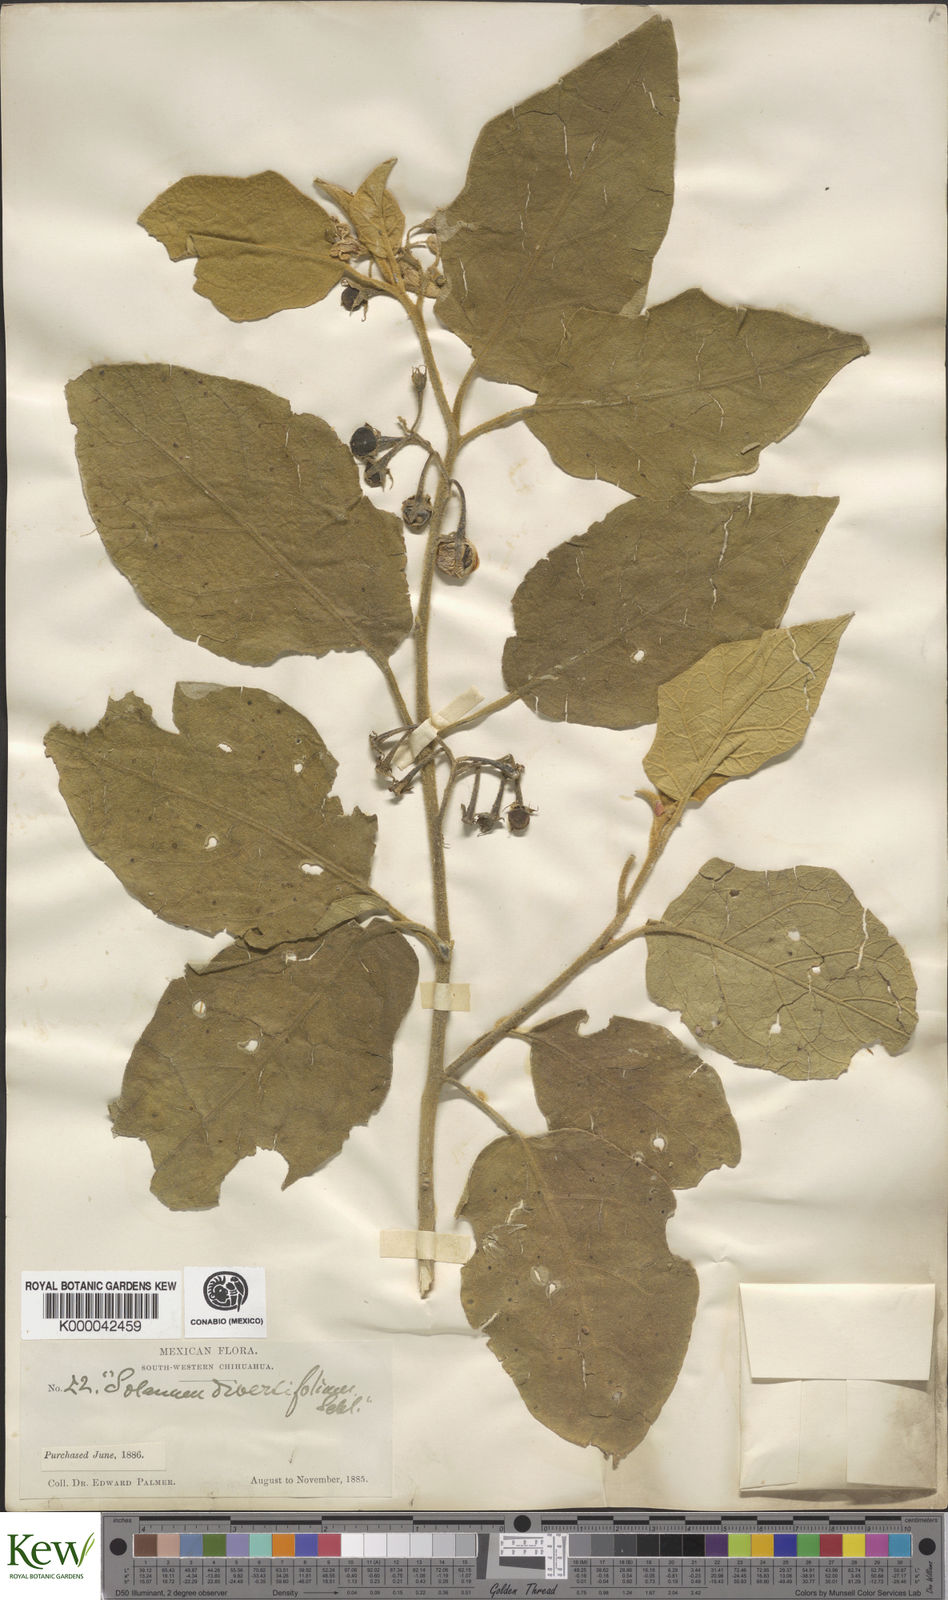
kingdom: Plantae
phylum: Tracheophyta
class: Magnoliopsida
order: Solanales
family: Solanaceae
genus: Solanum
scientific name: Solanum diversifolium
